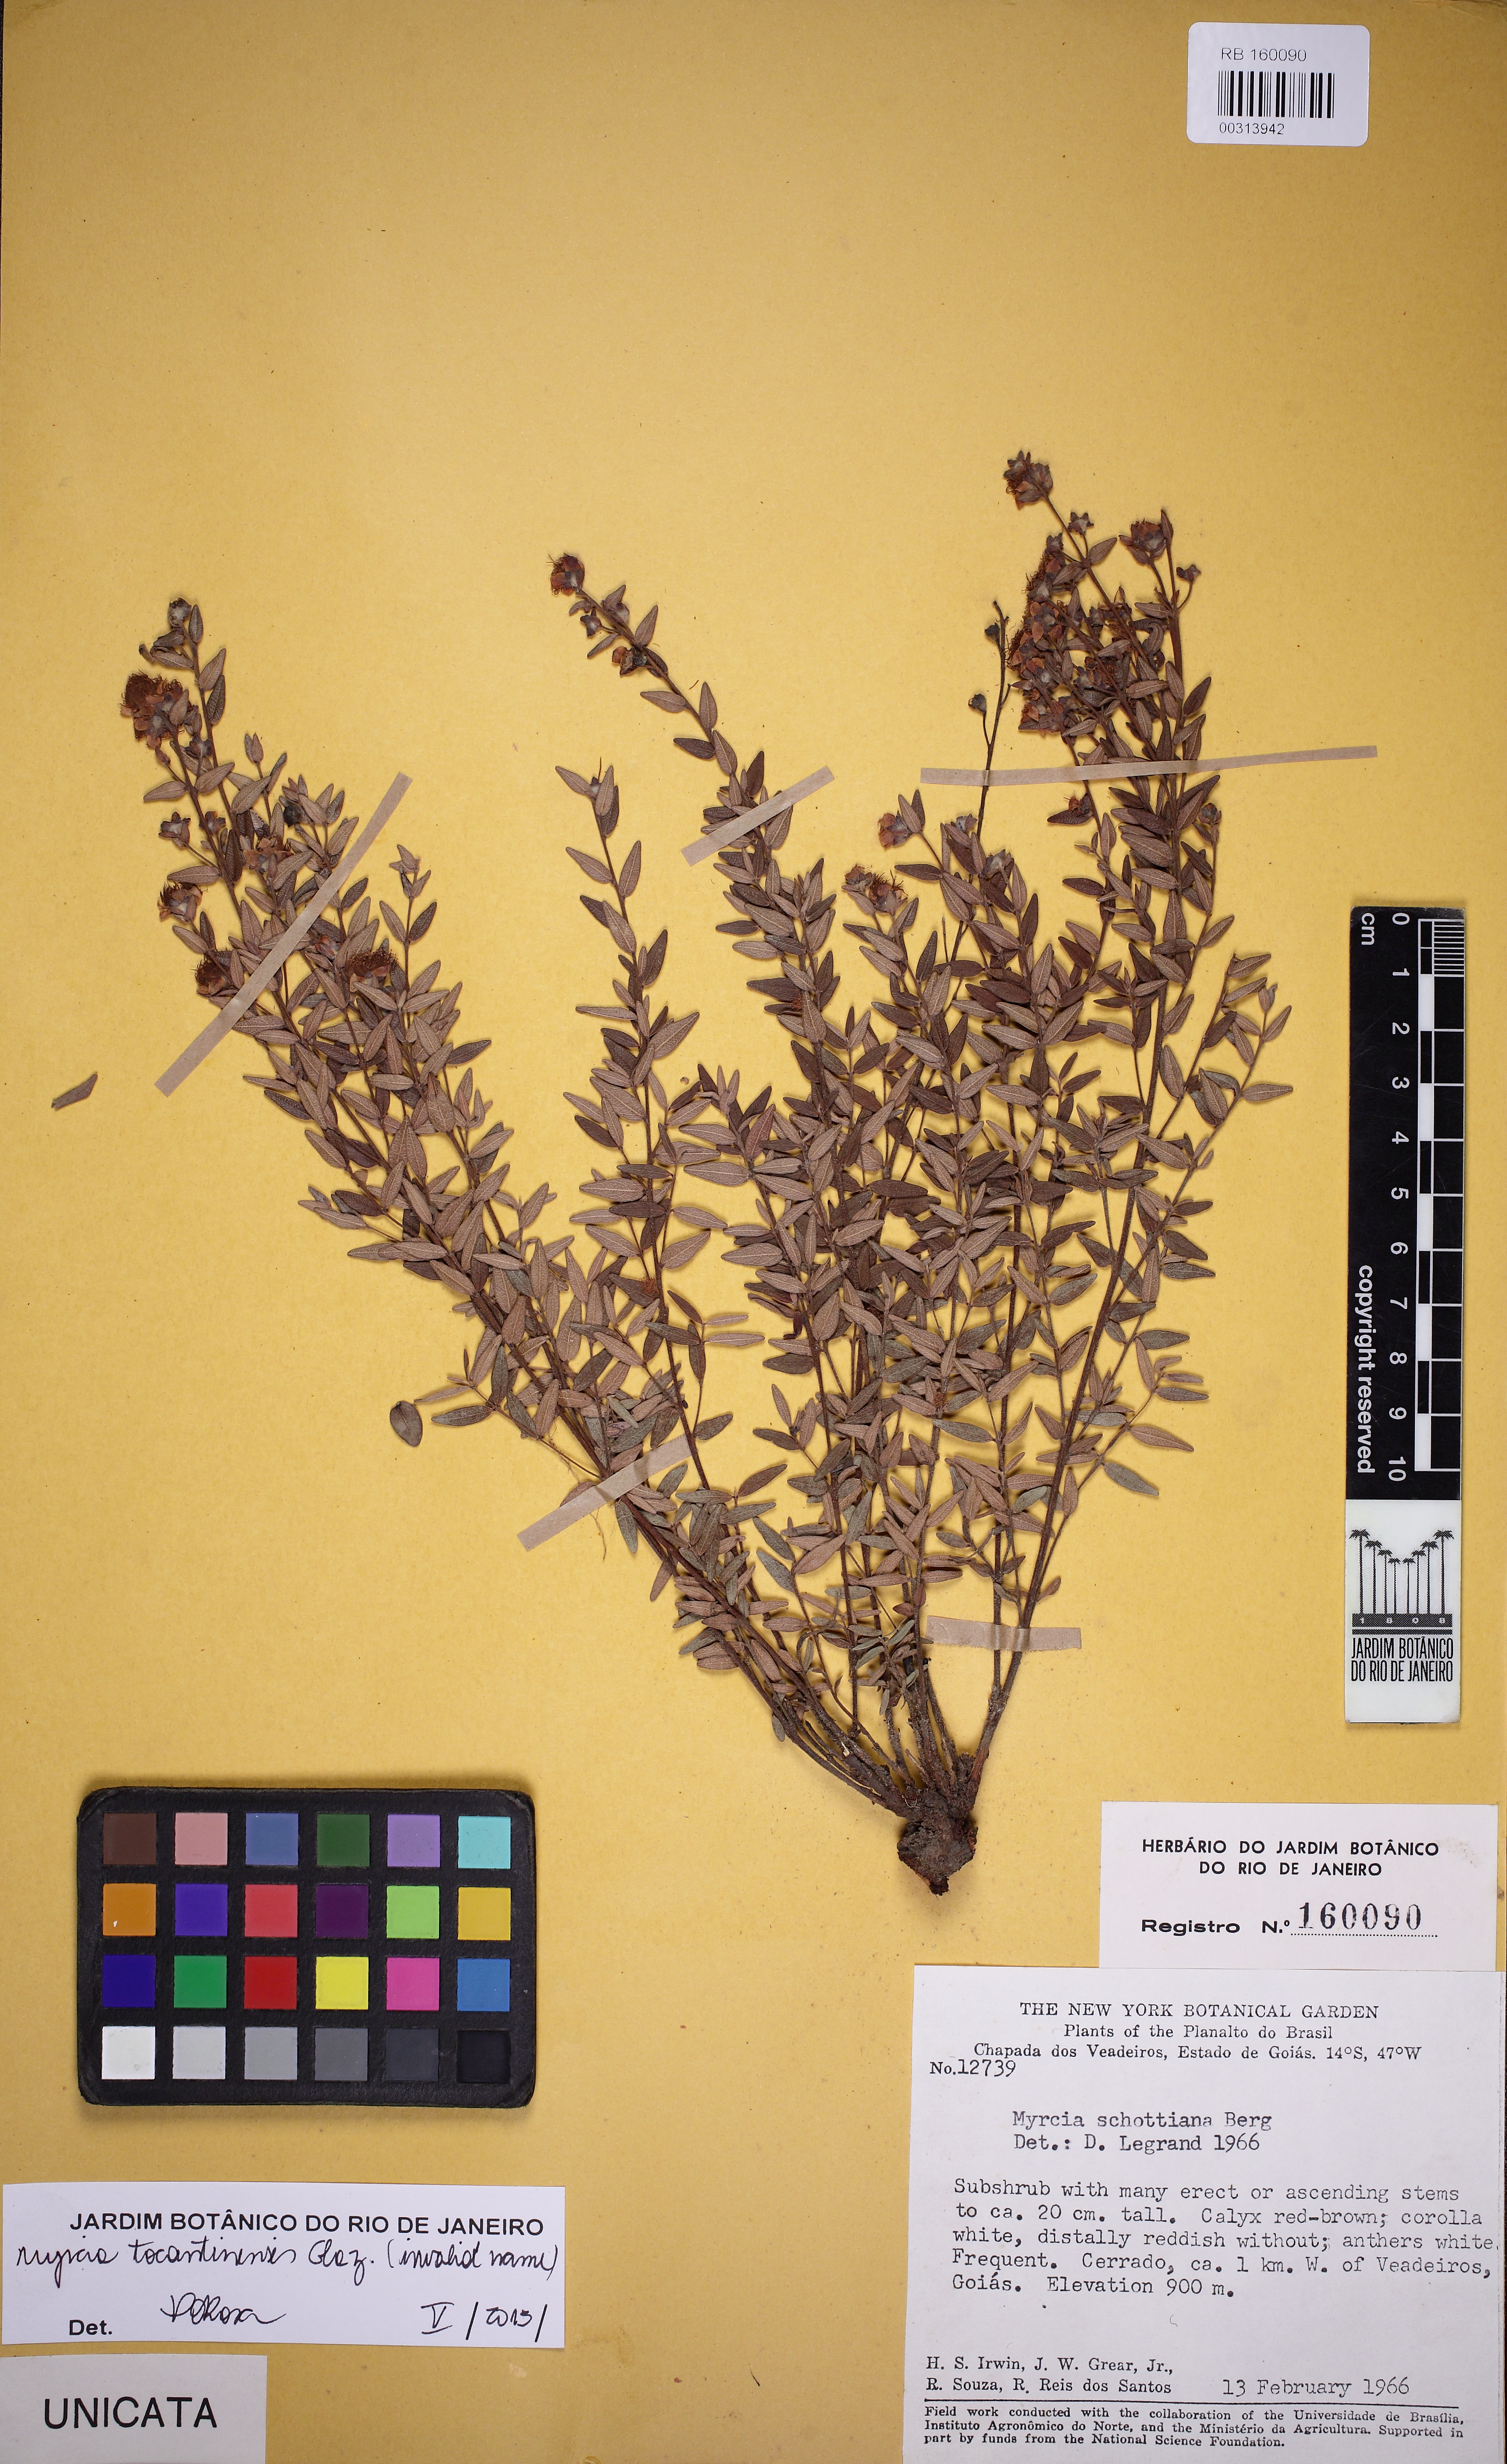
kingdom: Plantae
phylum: Tracheophyta
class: Magnoliopsida
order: Myrtales
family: Myrtaceae
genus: Myrcia
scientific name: Myrcia tocantinensis
